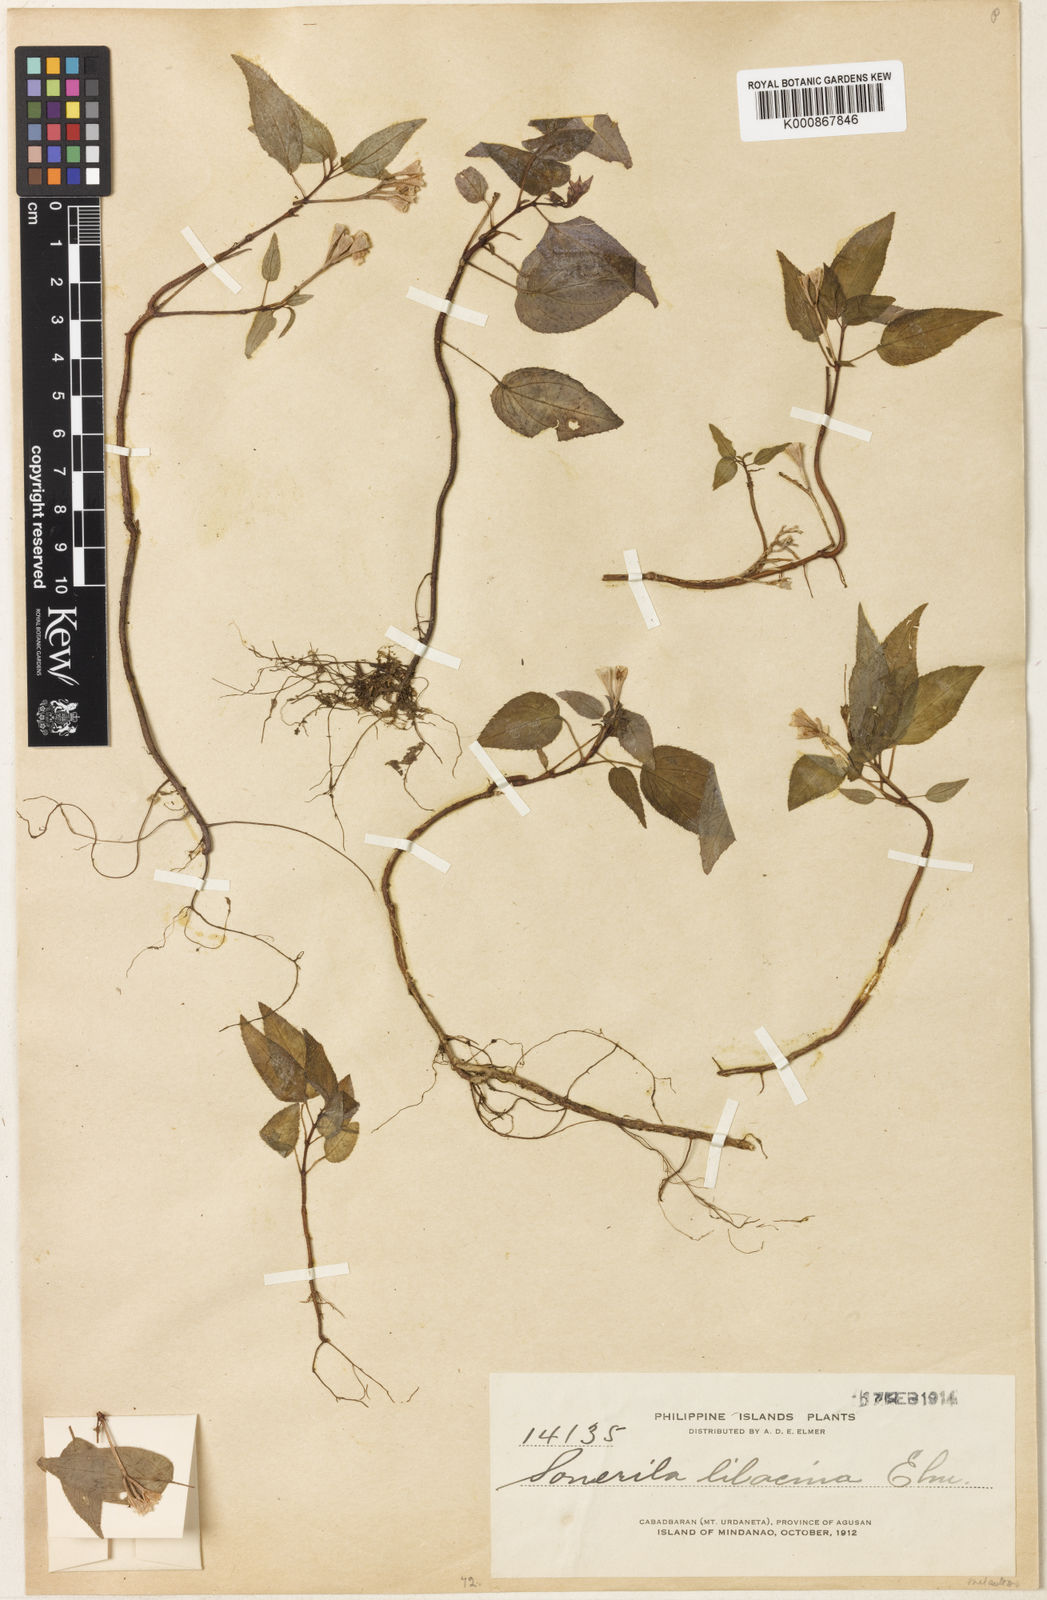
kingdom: Plantae
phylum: Tracheophyta
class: Magnoliopsida
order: Myrtales
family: Melastomataceae
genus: Sonerila
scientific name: Sonerila lilacina
